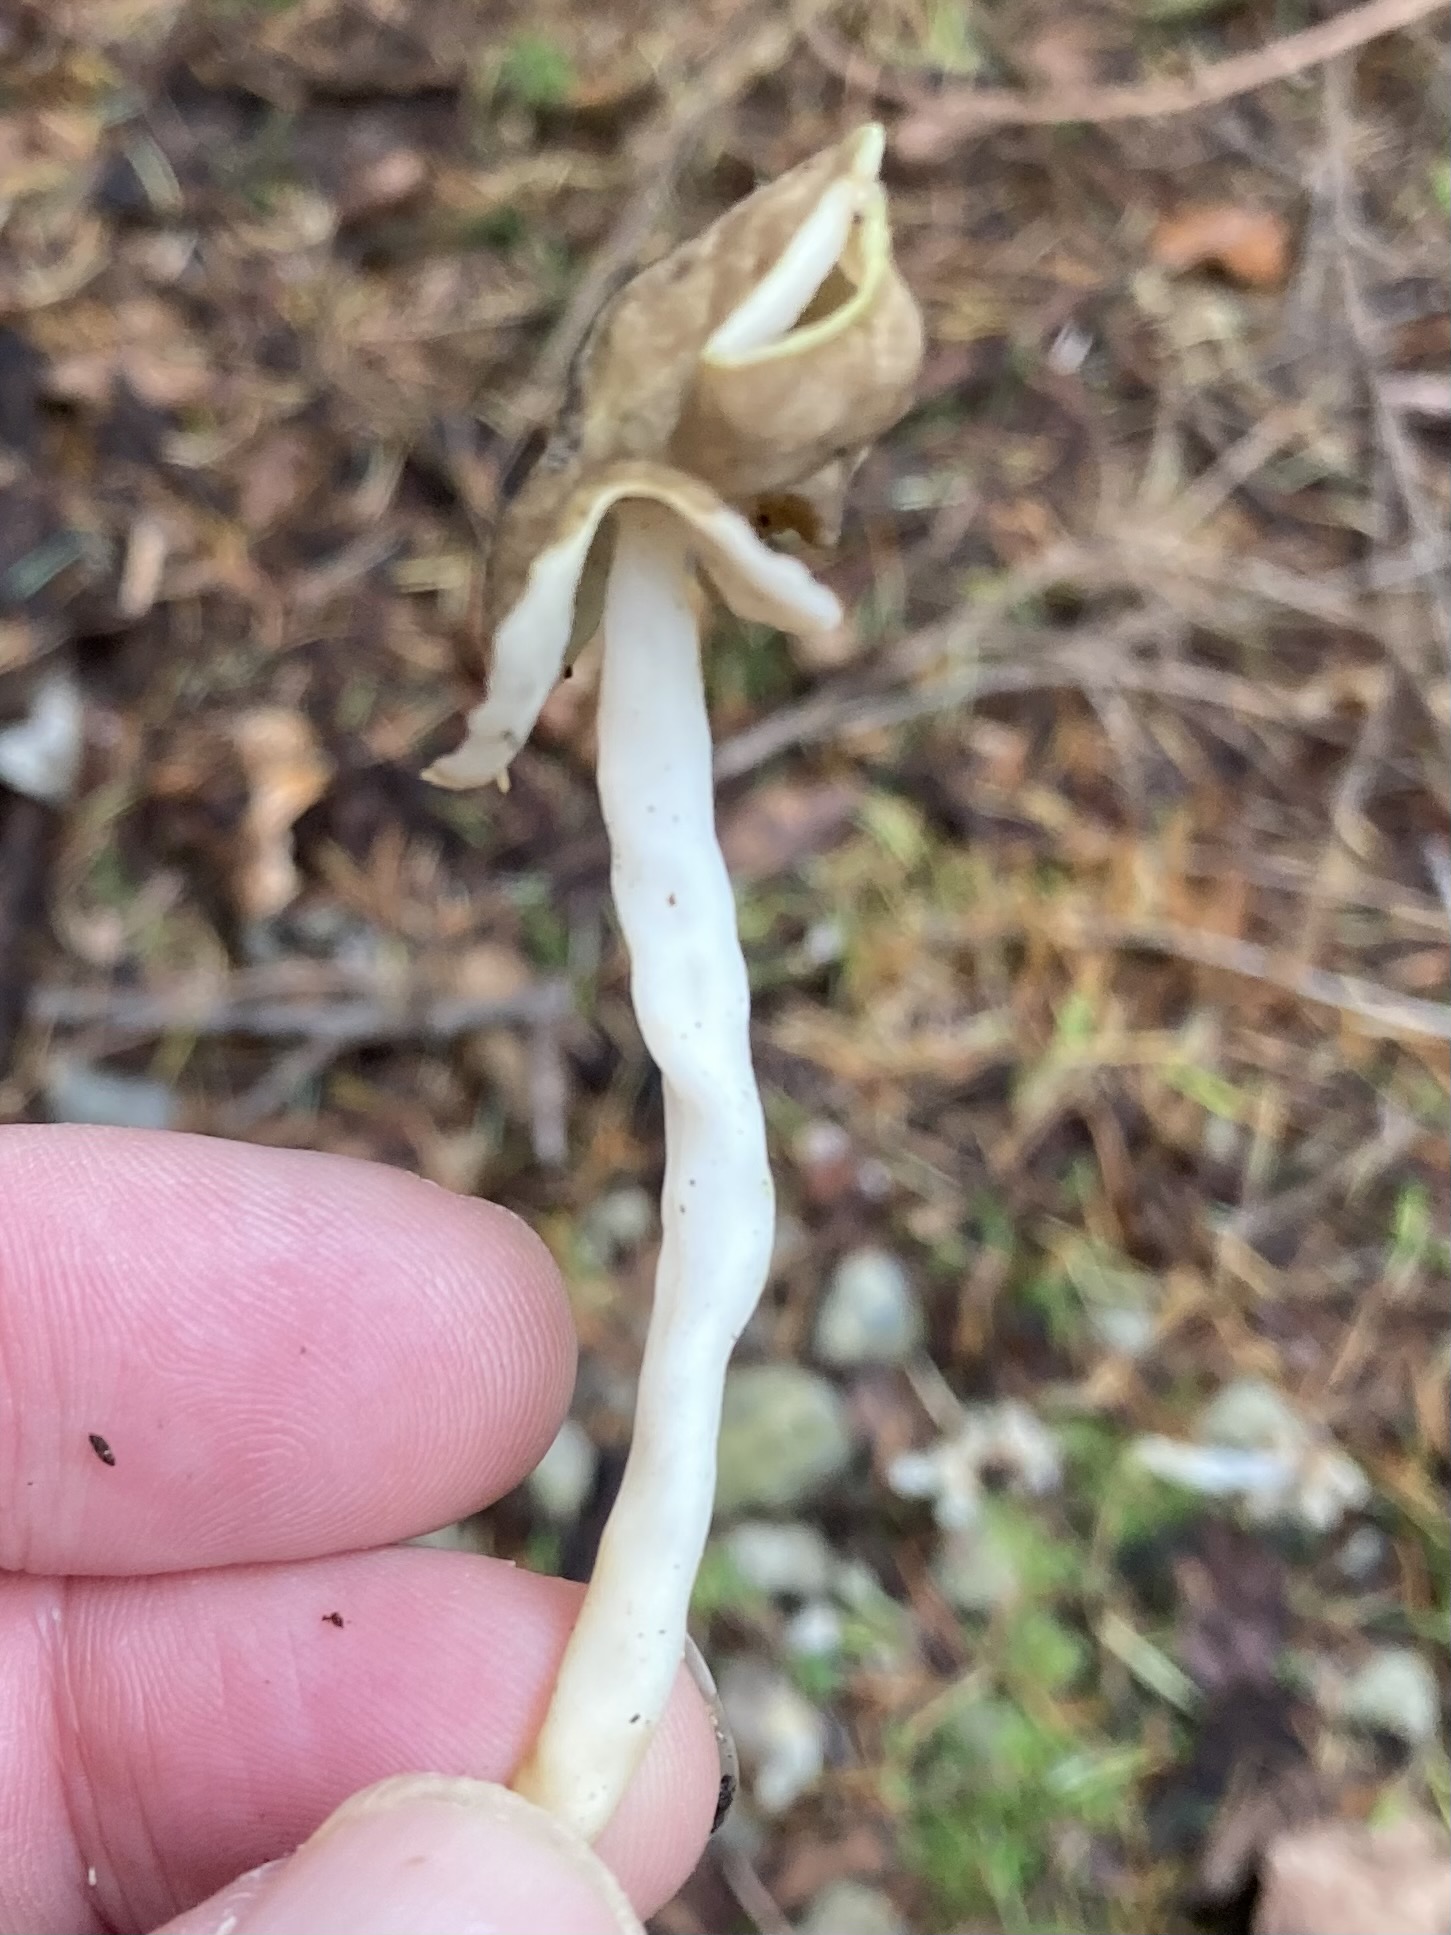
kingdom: Fungi
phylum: Ascomycota
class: Pezizomycetes
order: Pezizales
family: Helvellaceae
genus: Helvella
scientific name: Helvella elastica
